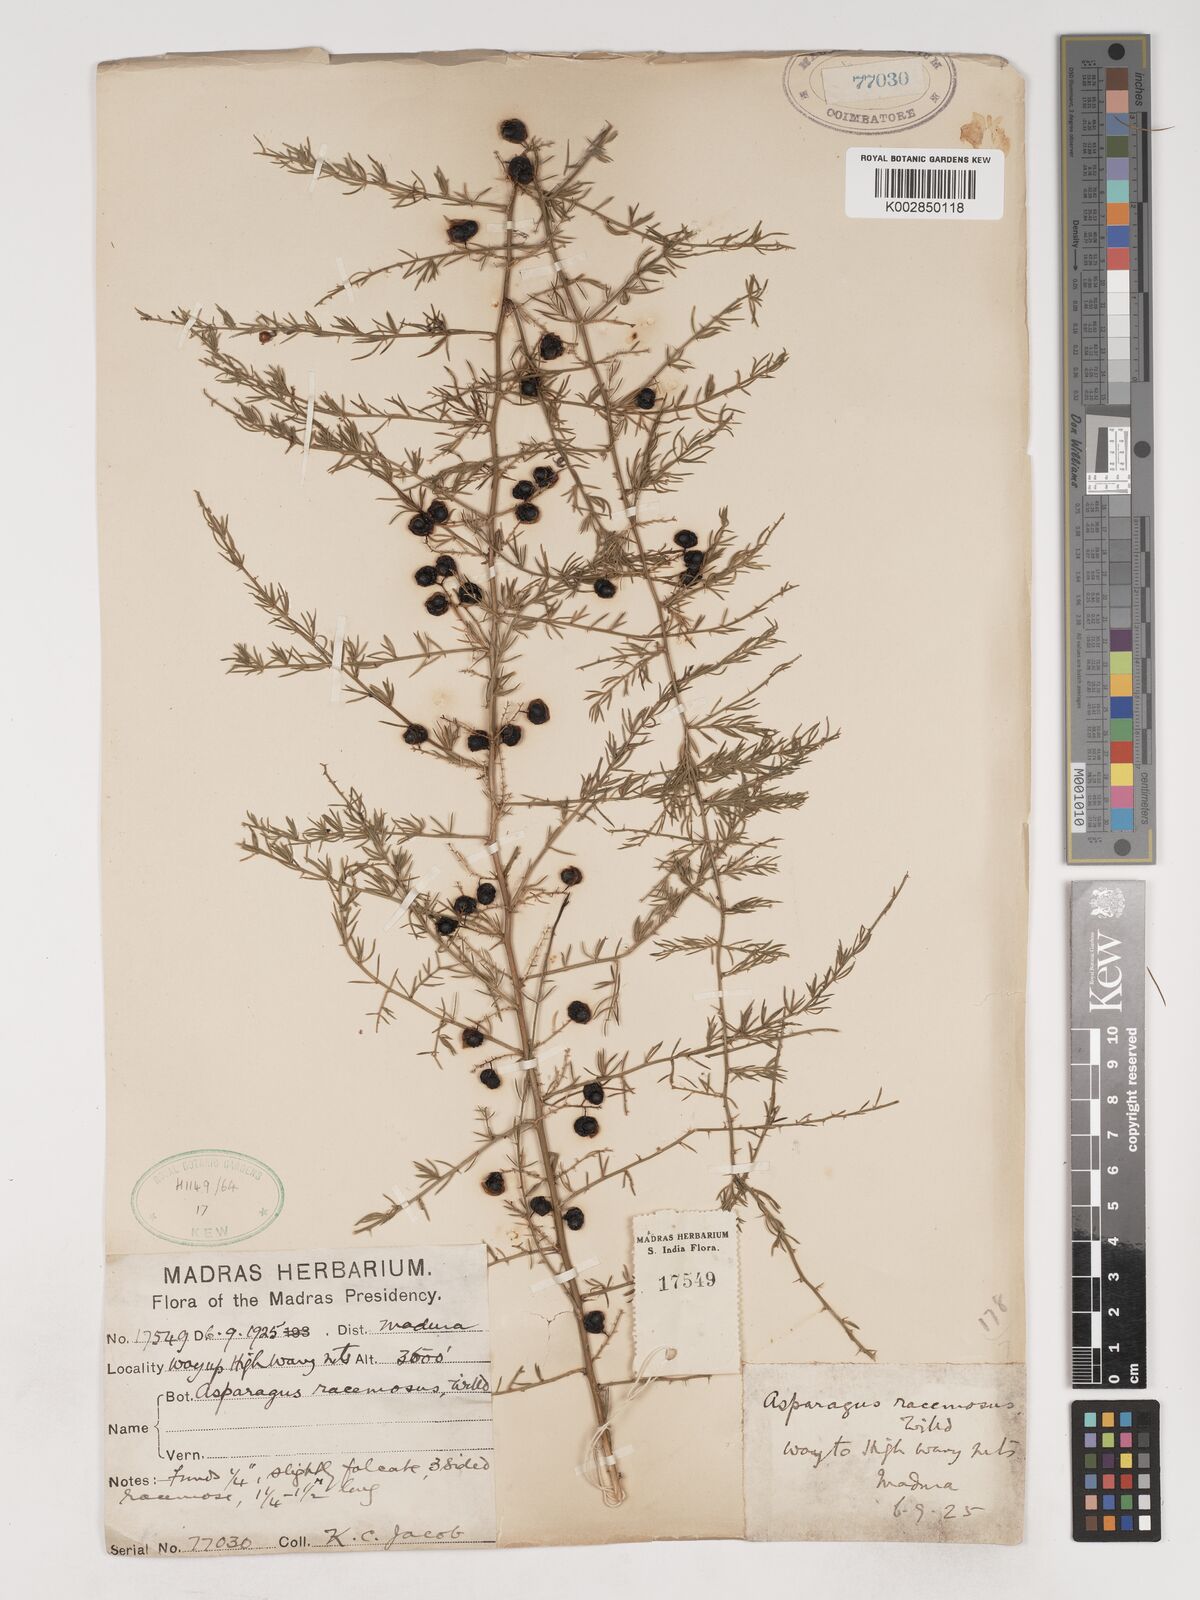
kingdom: Plantae
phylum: Tracheophyta
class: Liliopsida
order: Asparagales
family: Asparagaceae
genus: Asparagus
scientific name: Asparagus racemosus
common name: Asparagus-fern
